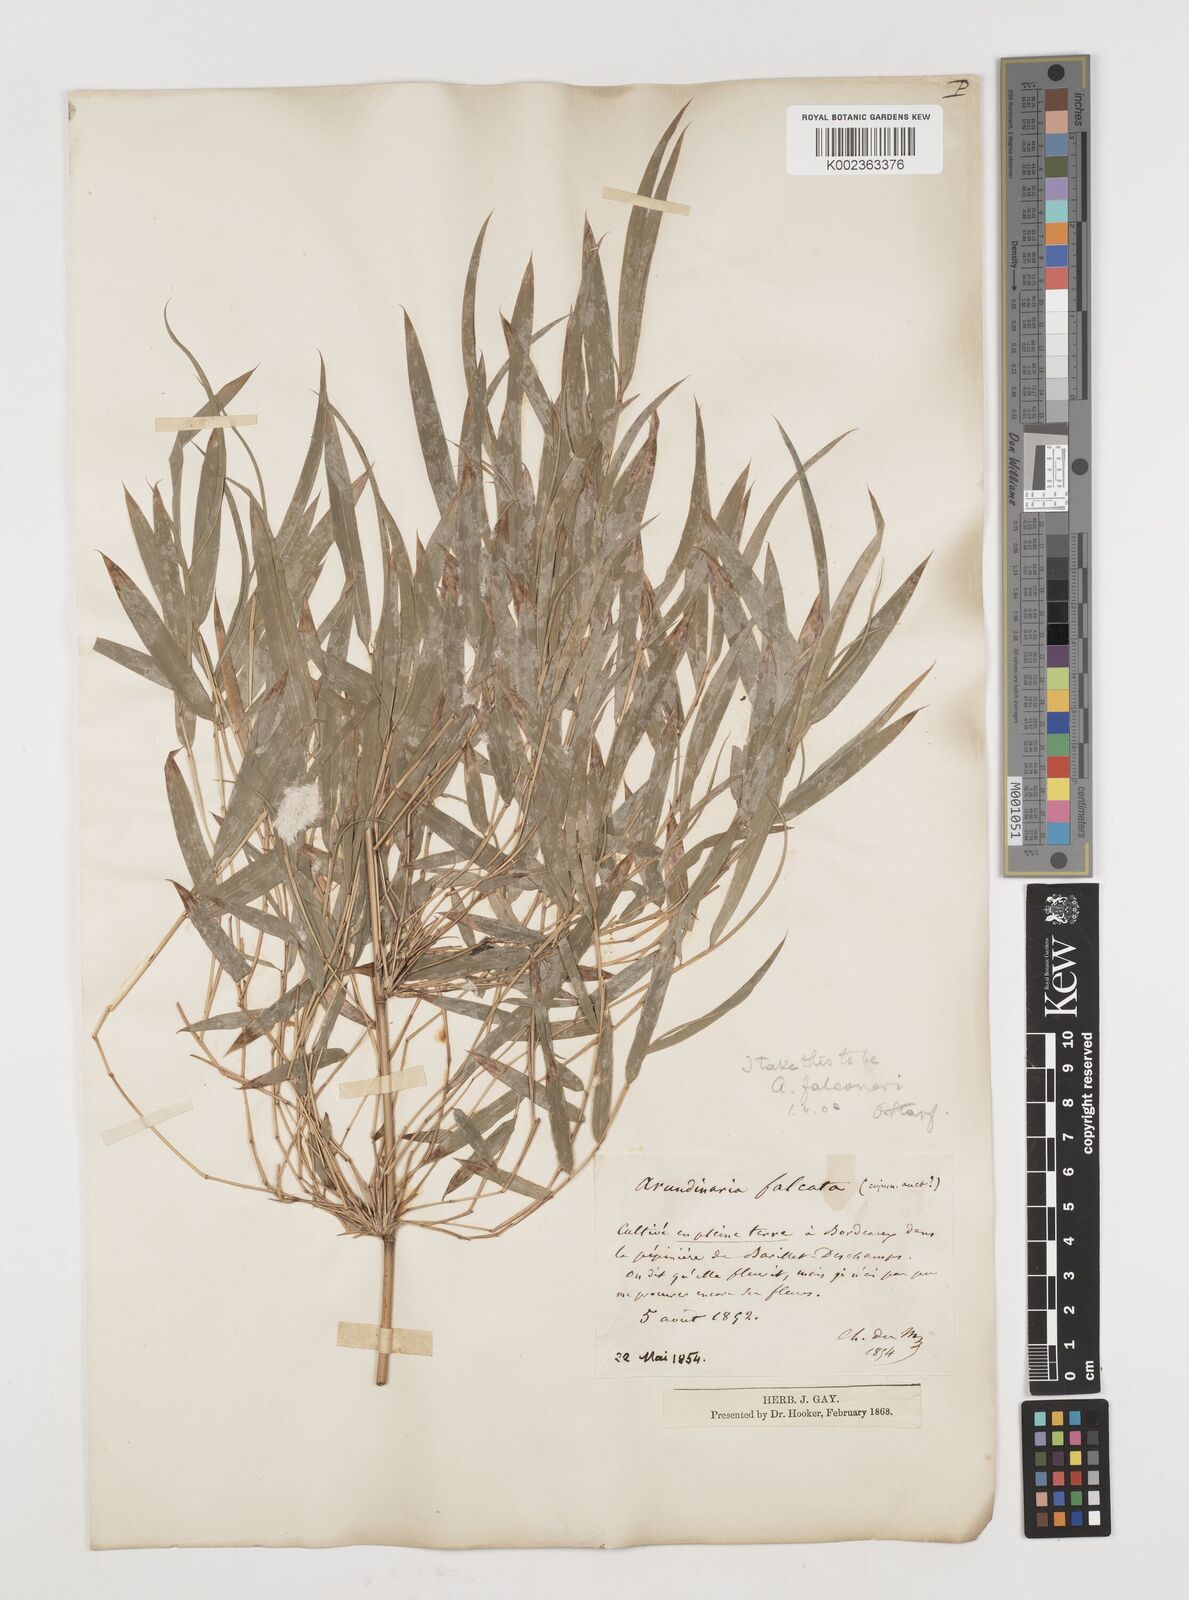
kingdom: Plantae
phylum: Tracheophyta
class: Liliopsida
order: Poales
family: Poaceae
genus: Himalayacalamus
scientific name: Himalayacalamus falconeri
